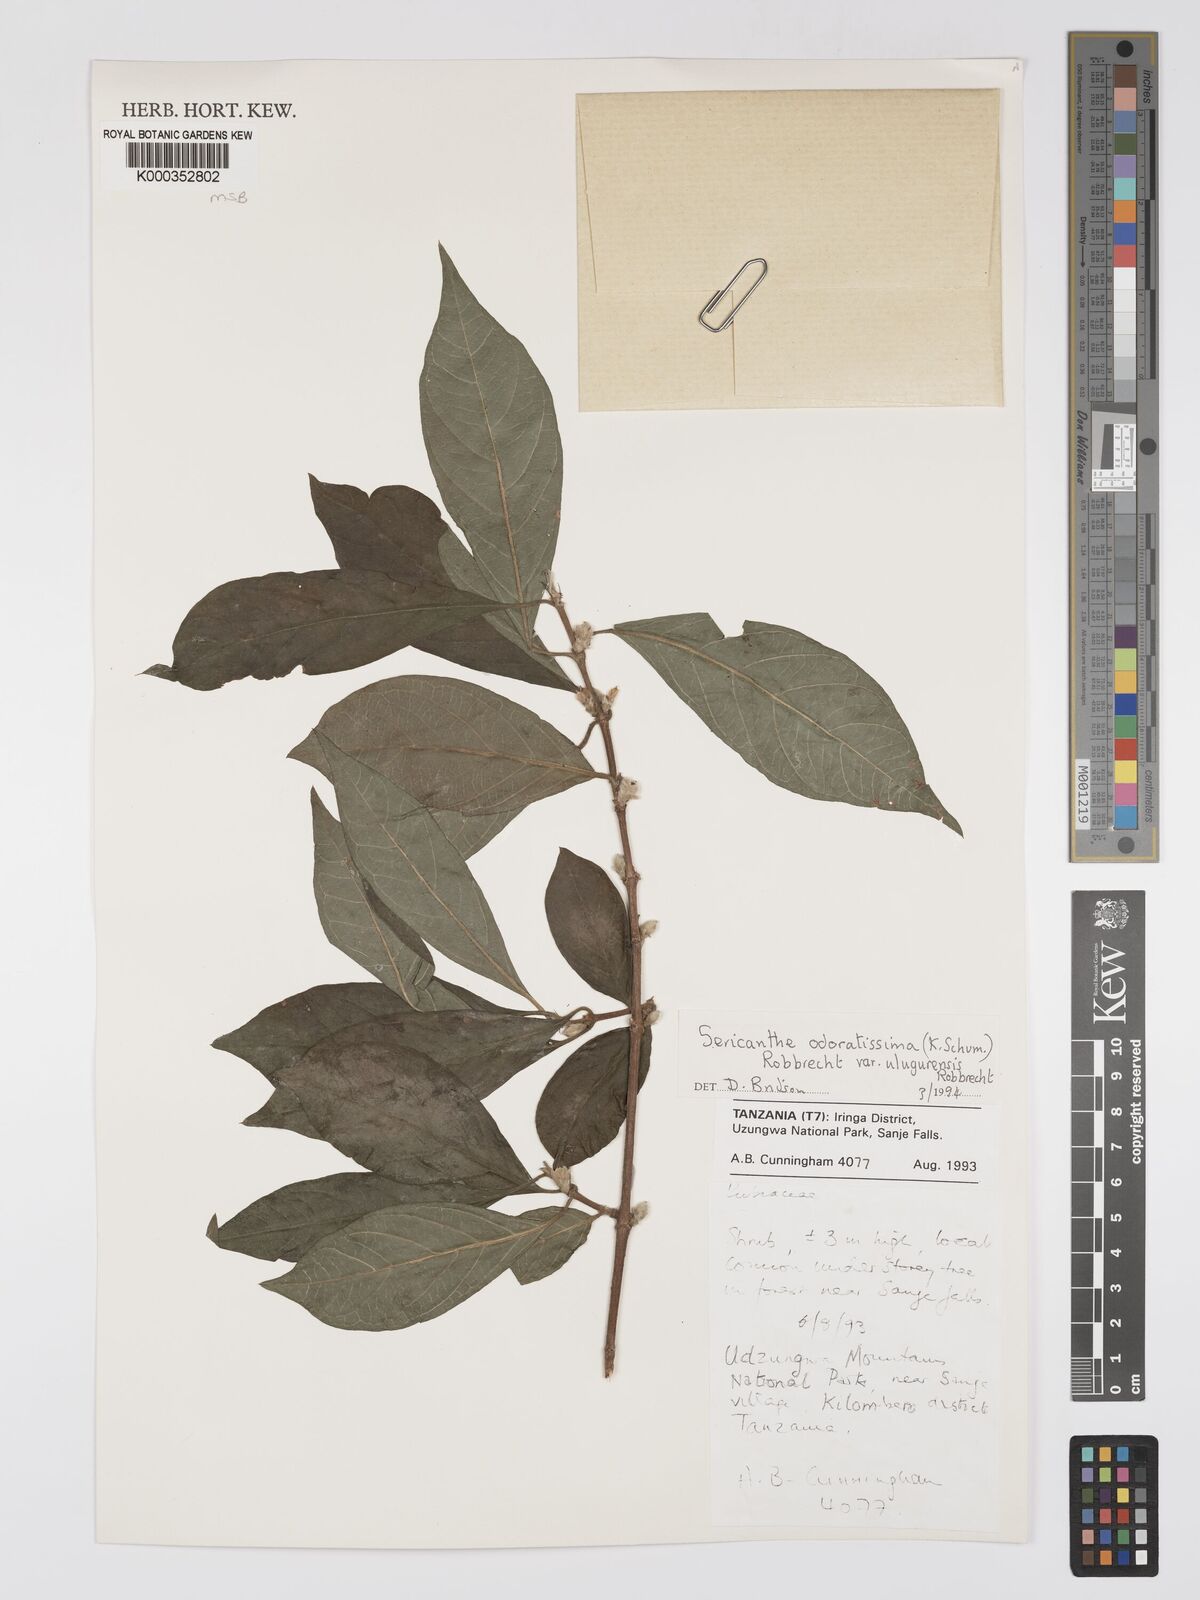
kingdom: Plantae
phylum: Tracheophyta
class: Magnoliopsida
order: Gentianales
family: Rubiaceae
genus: Sericanthe
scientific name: Sericanthe odoratissima
